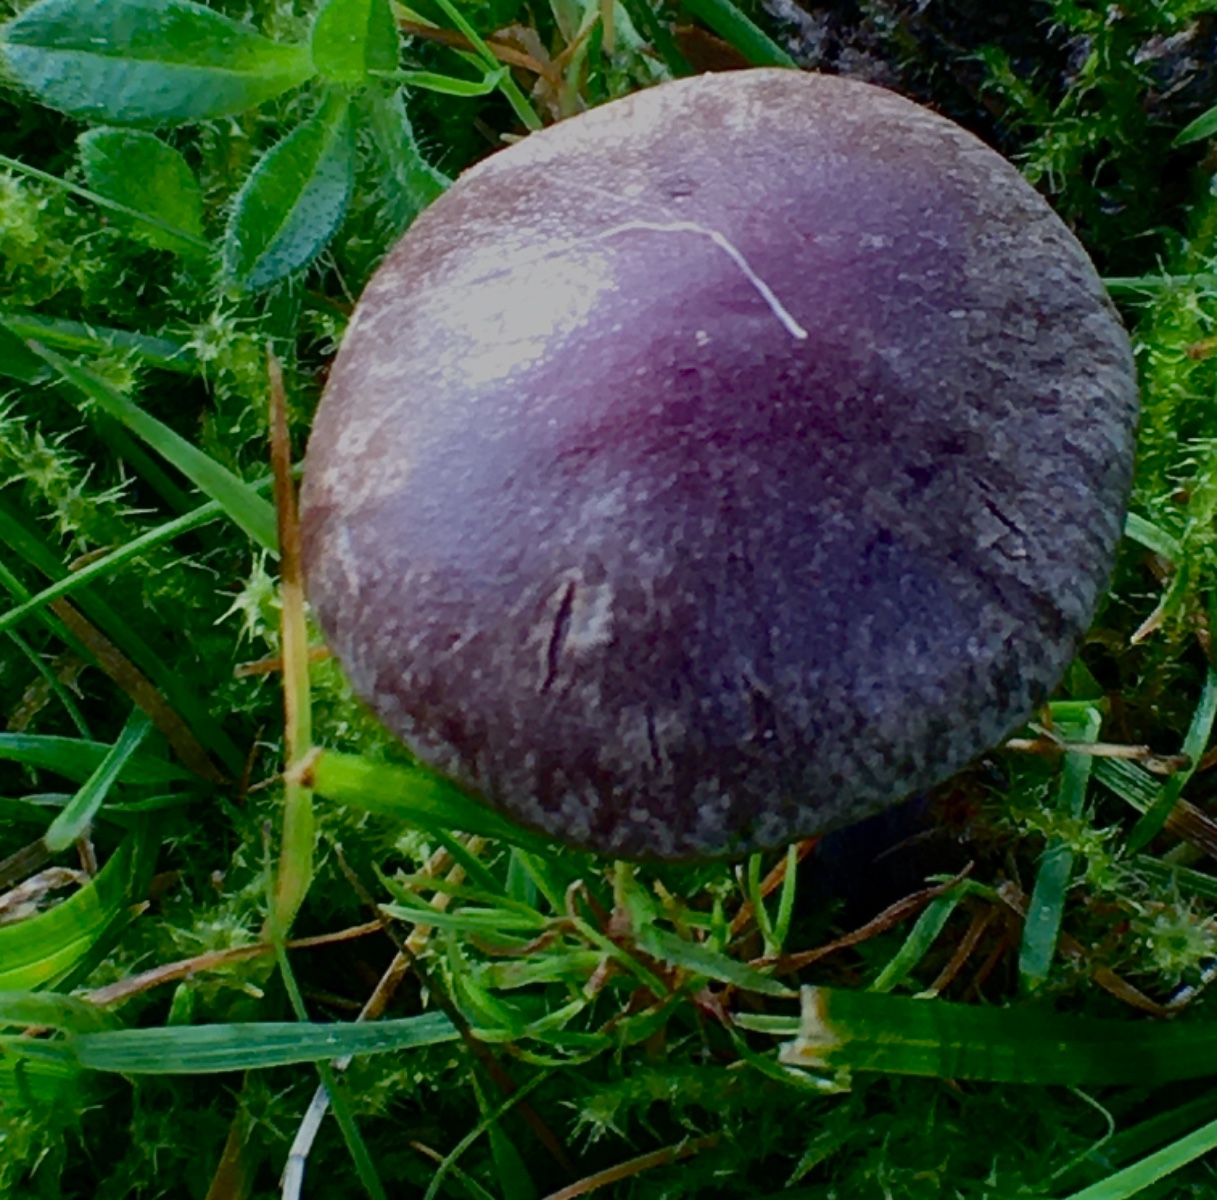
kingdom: Fungi
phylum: Basidiomycota
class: Agaricomycetes
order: Agaricales
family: Cortinariaceae
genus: Cortinarius
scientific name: Cortinarius
